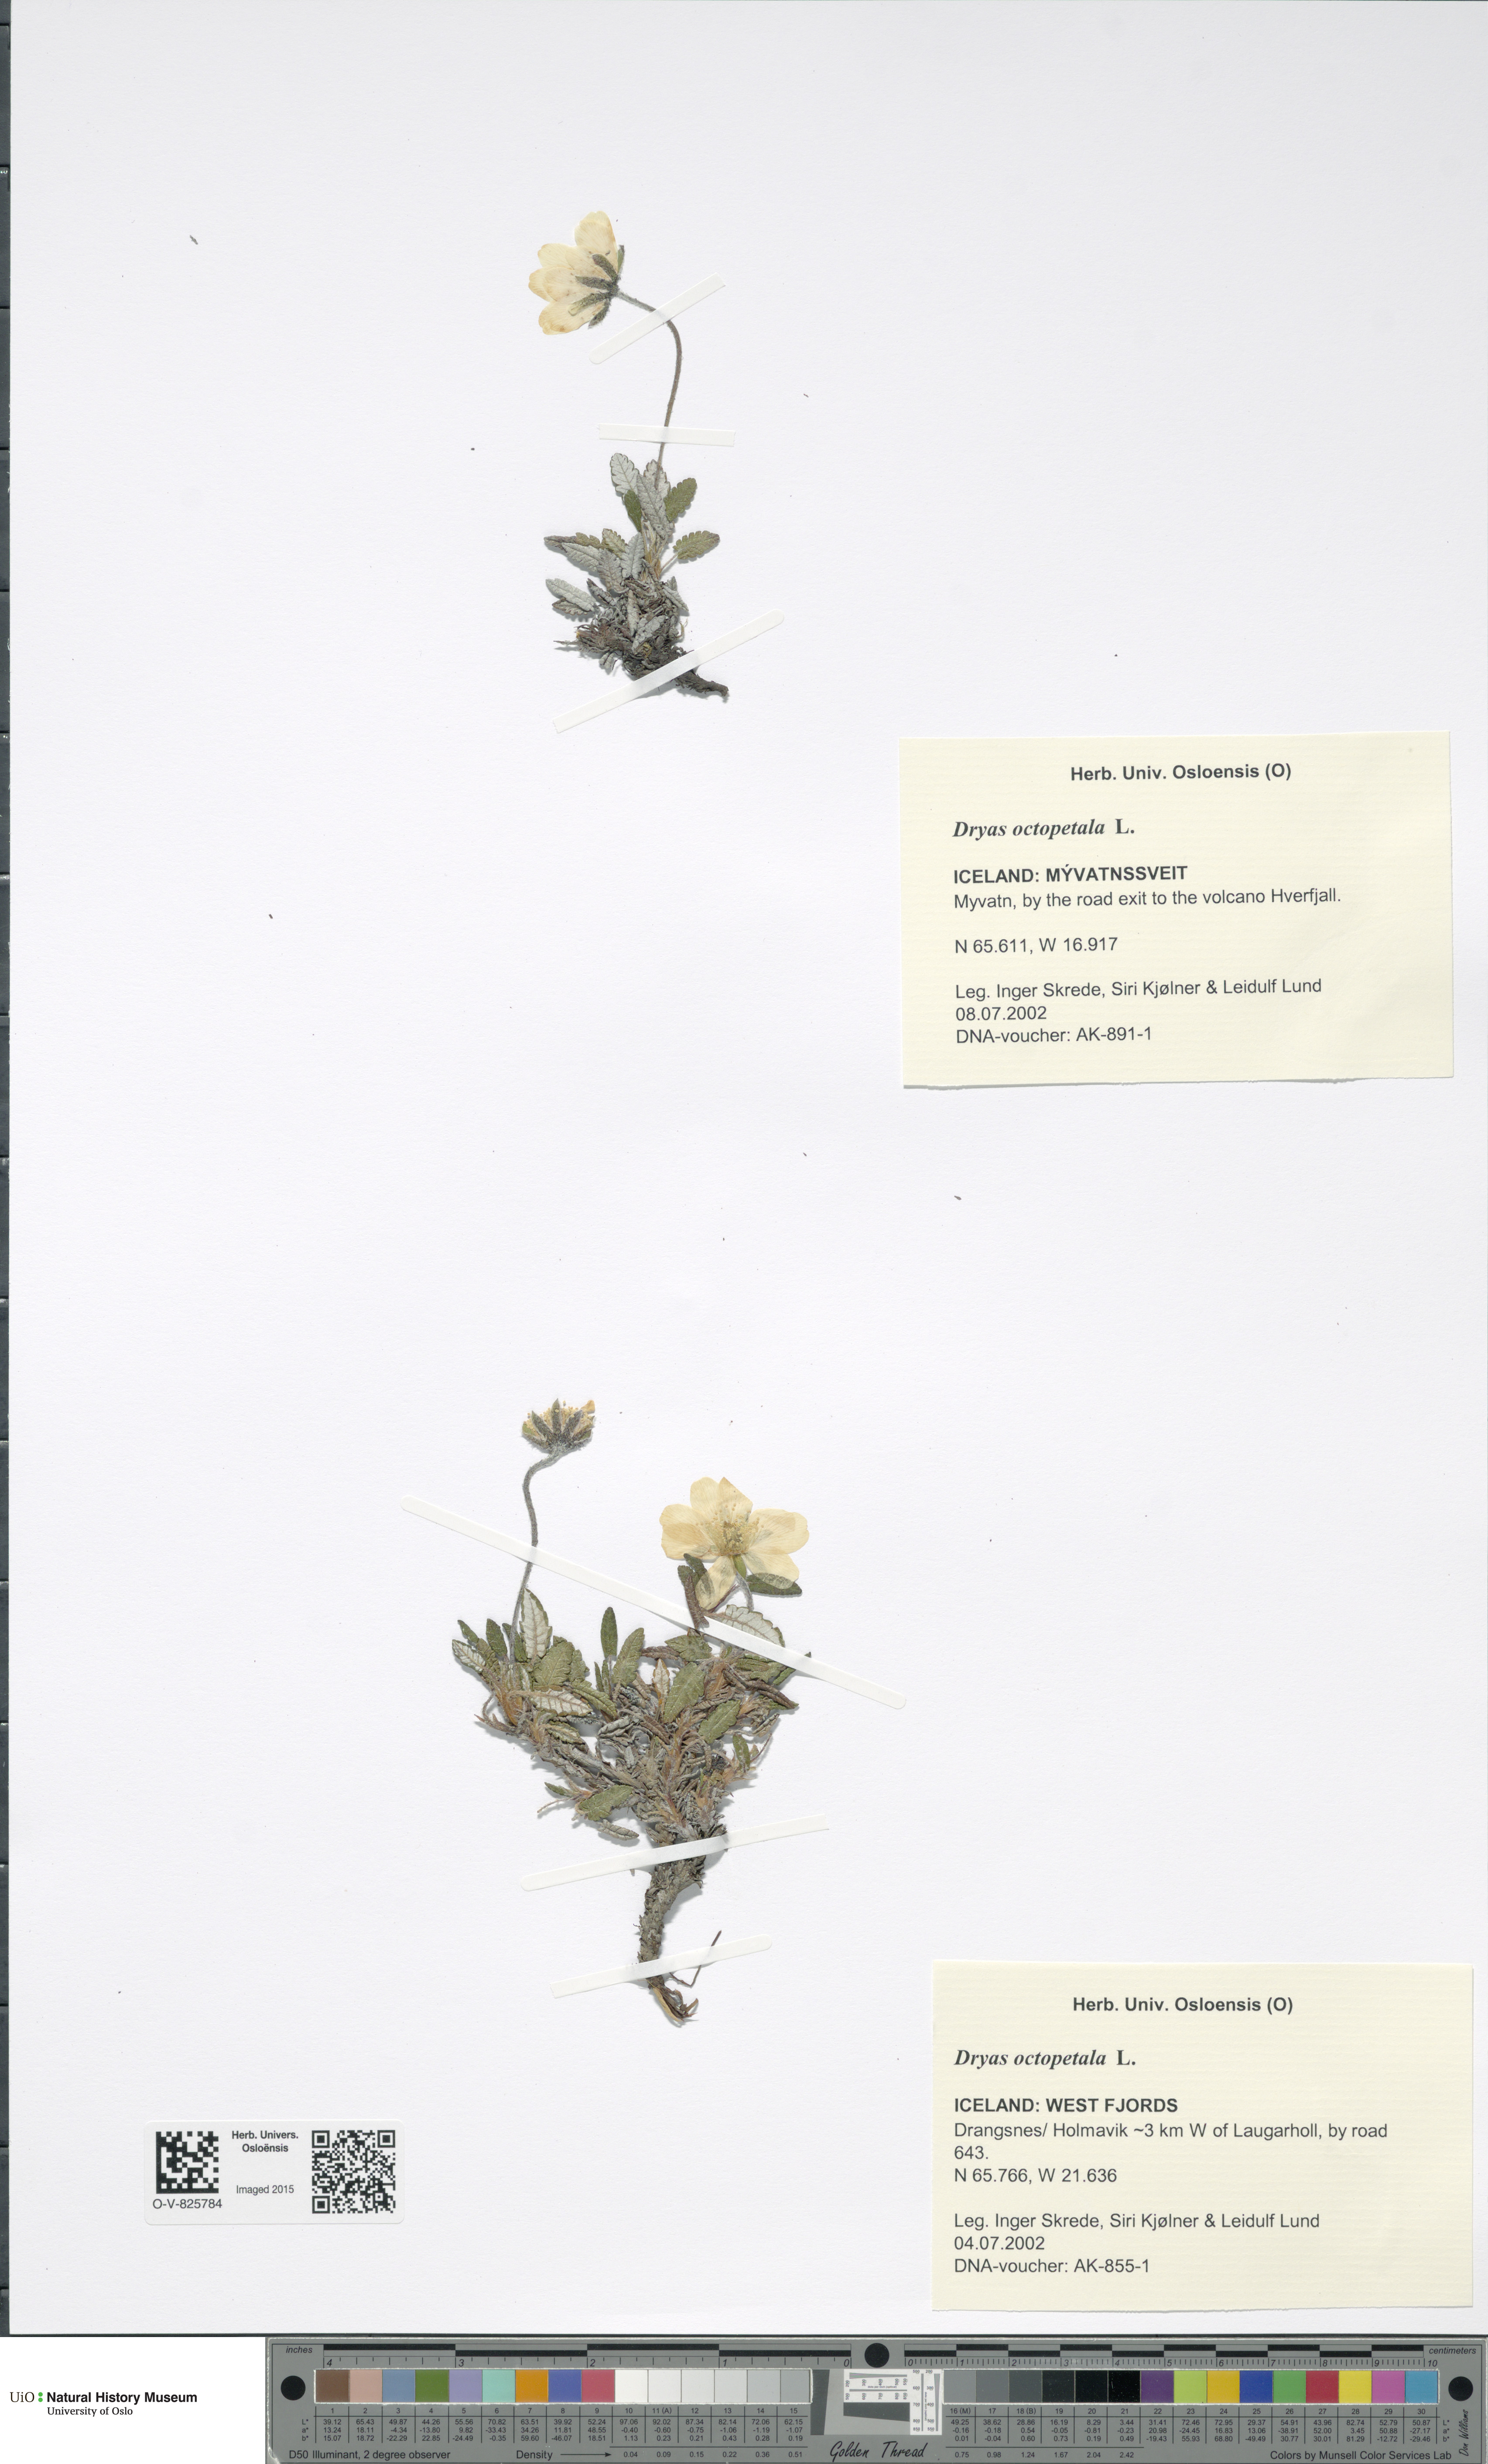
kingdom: Plantae
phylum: Tracheophyta
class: Magnoliopsida
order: Rosales
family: Rosaceae
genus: Dryas
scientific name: Dryas octopetala
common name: Eight-petal mountain-avens
